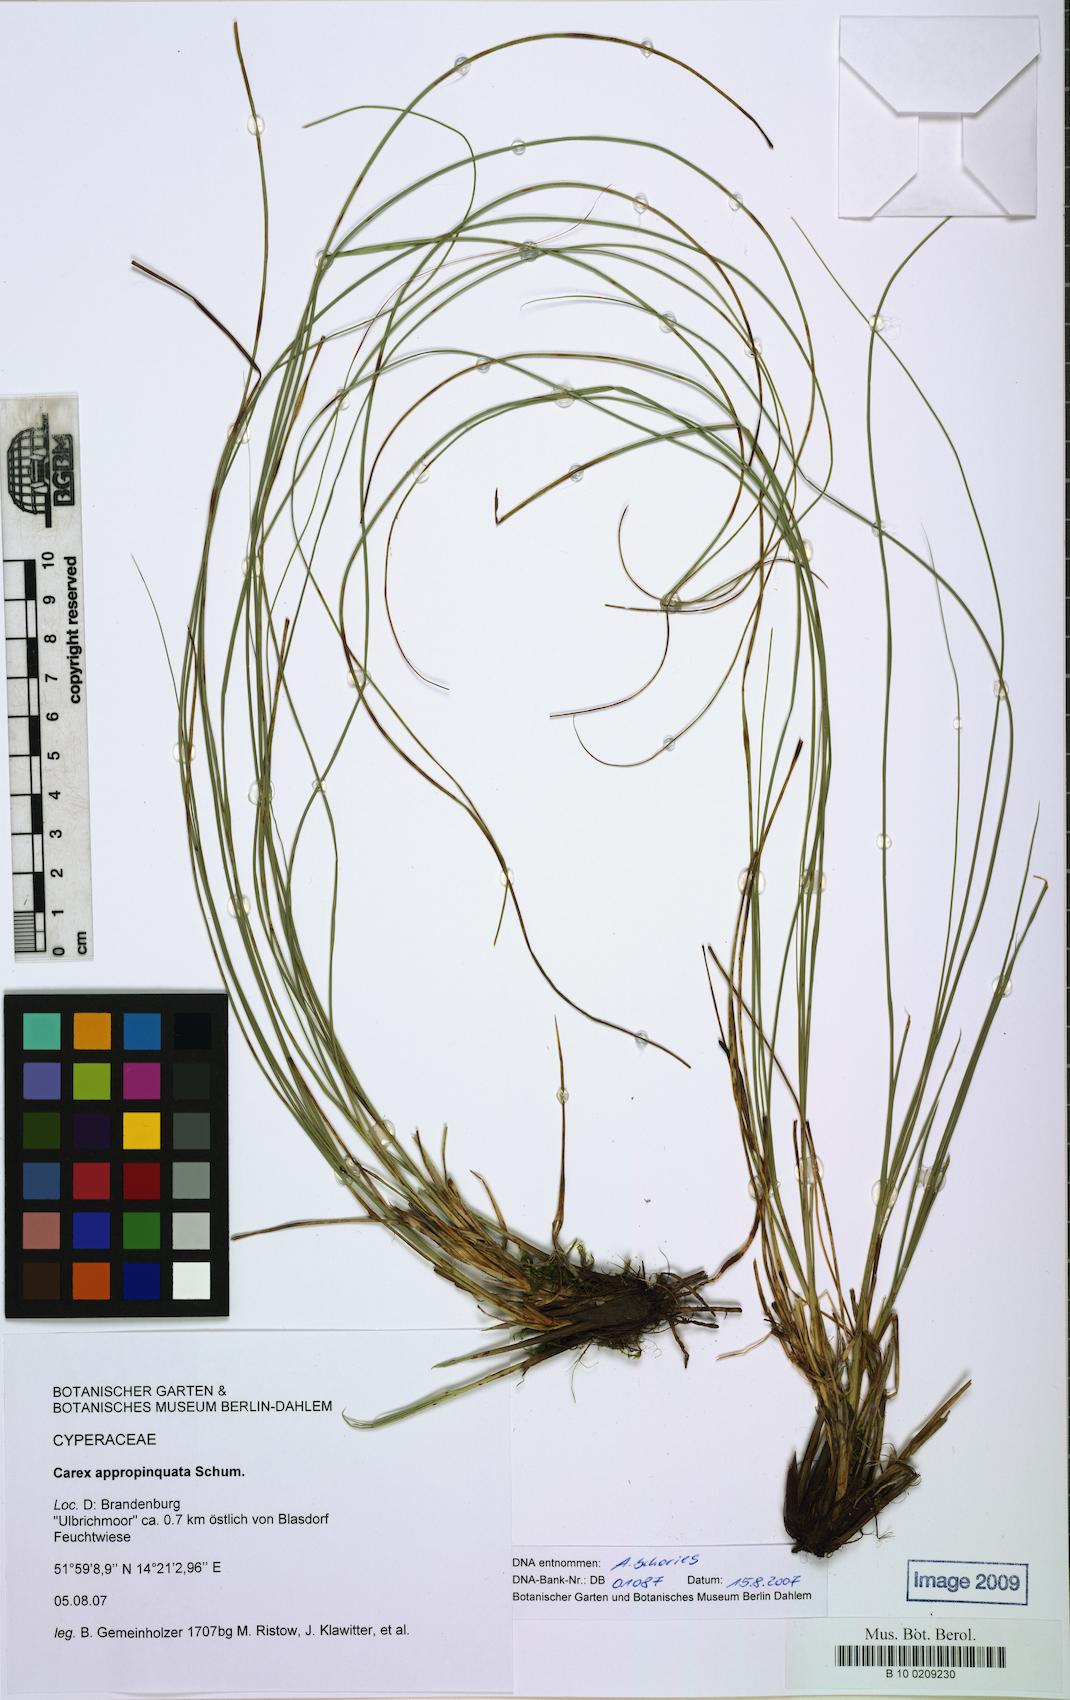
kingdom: Plantae
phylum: Tracheophyta
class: Liliopsida
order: Poales
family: Cyperaceae
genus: Carex
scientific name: Carex appropinquata
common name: Fibrous tussock-sedge
